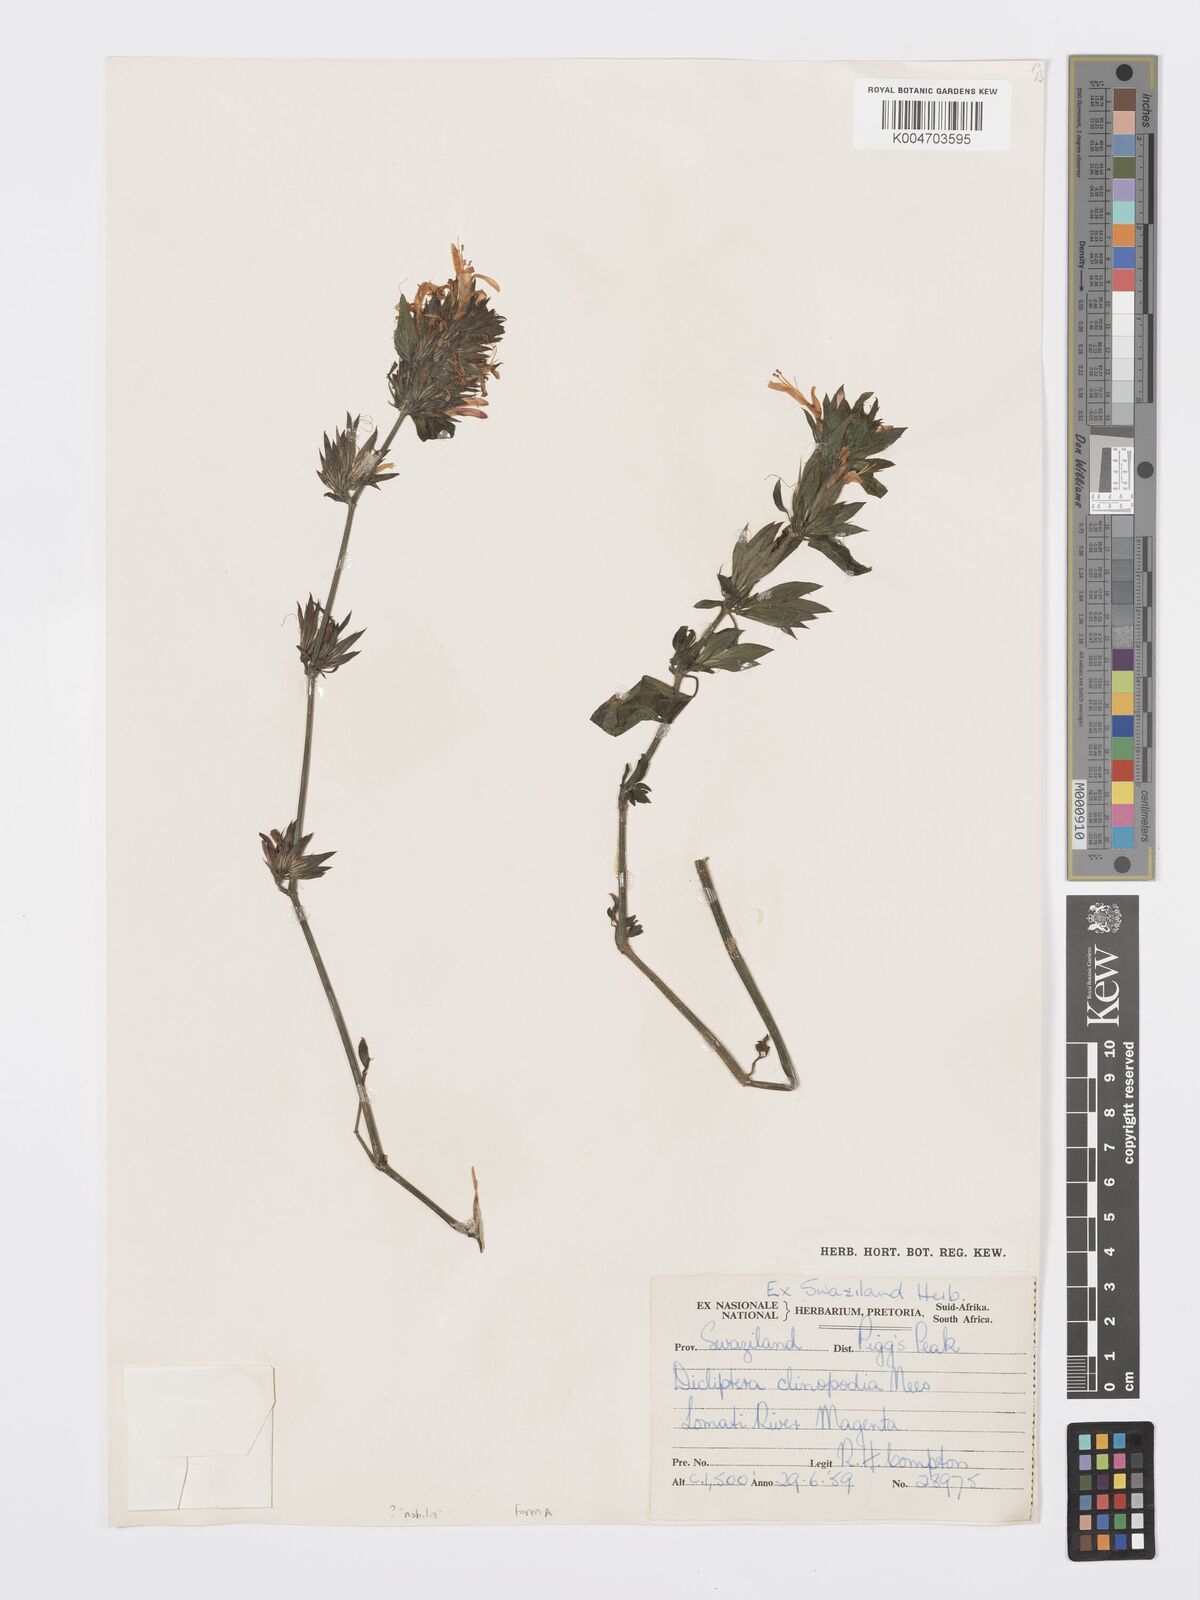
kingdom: Plantae
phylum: Tracheophyta
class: Magnoliopsida
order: Lamiales
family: Acanthaceae
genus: Dicliptera
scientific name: Dicliptera clinopodia
